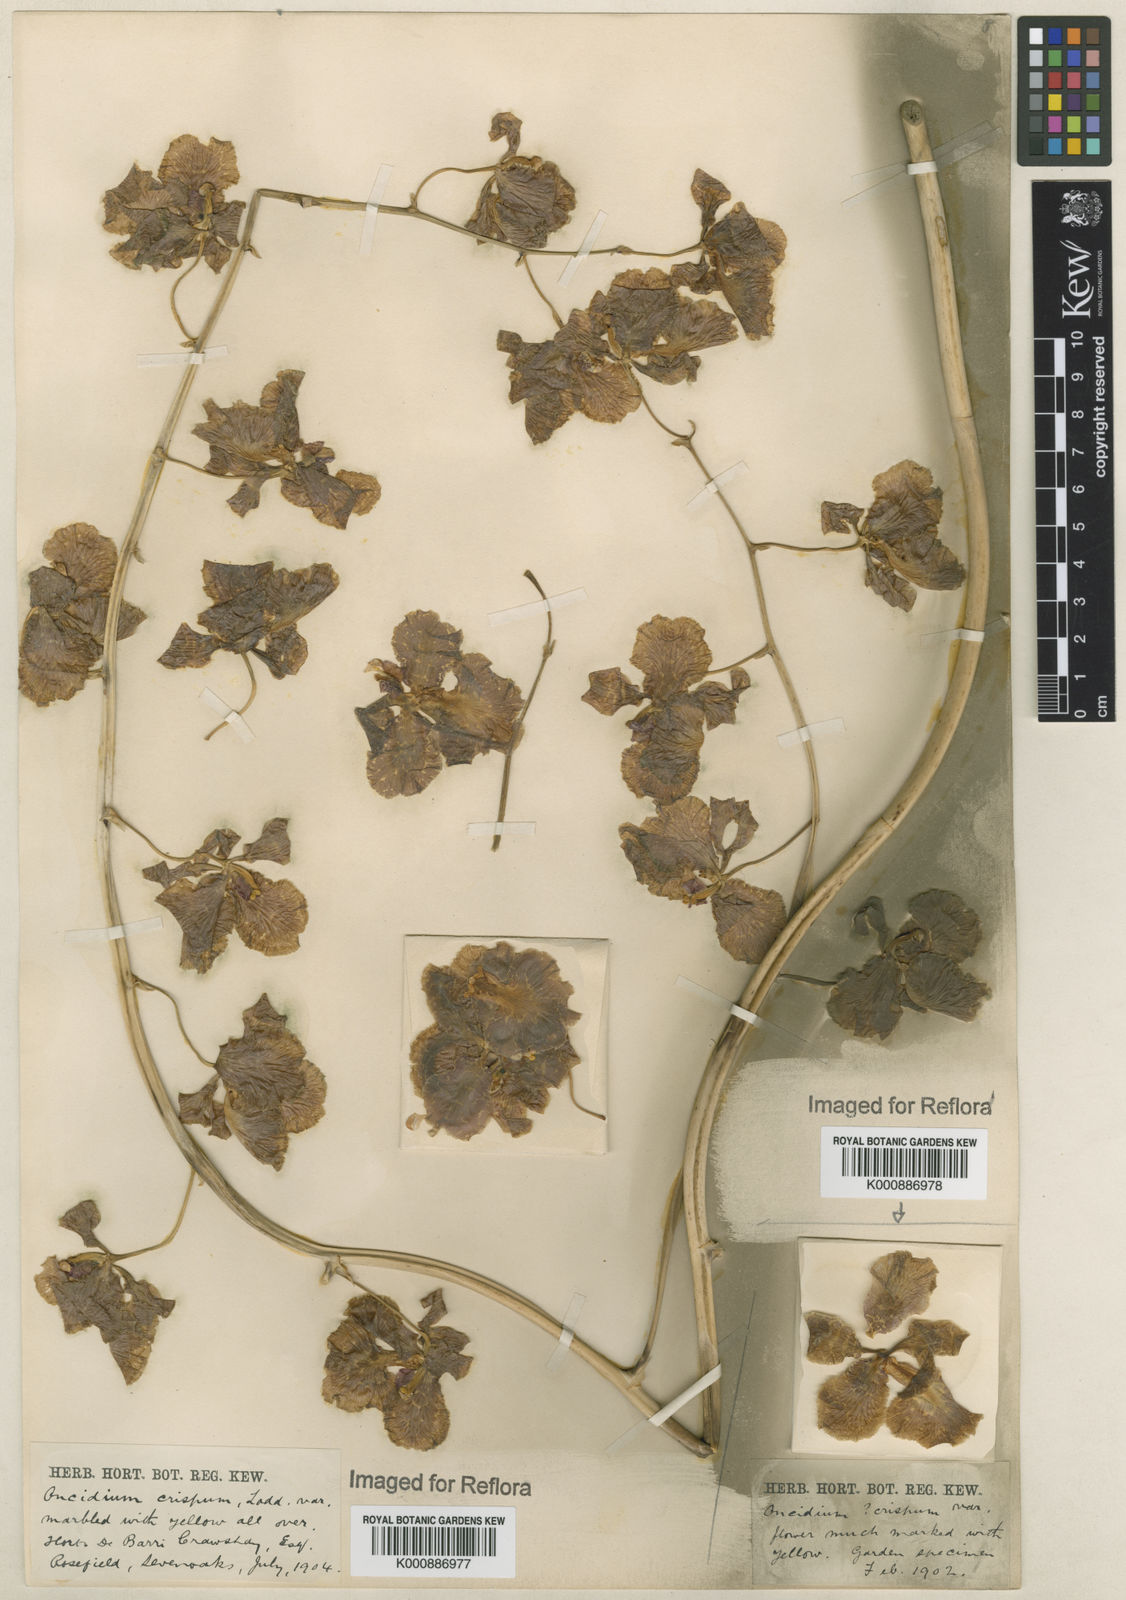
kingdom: Plantae
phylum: Tracheophyta
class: Liliopsida
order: Asparagales
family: Orchidaceae
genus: Gomesa
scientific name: Gomesa imperatoris-maximiliani
